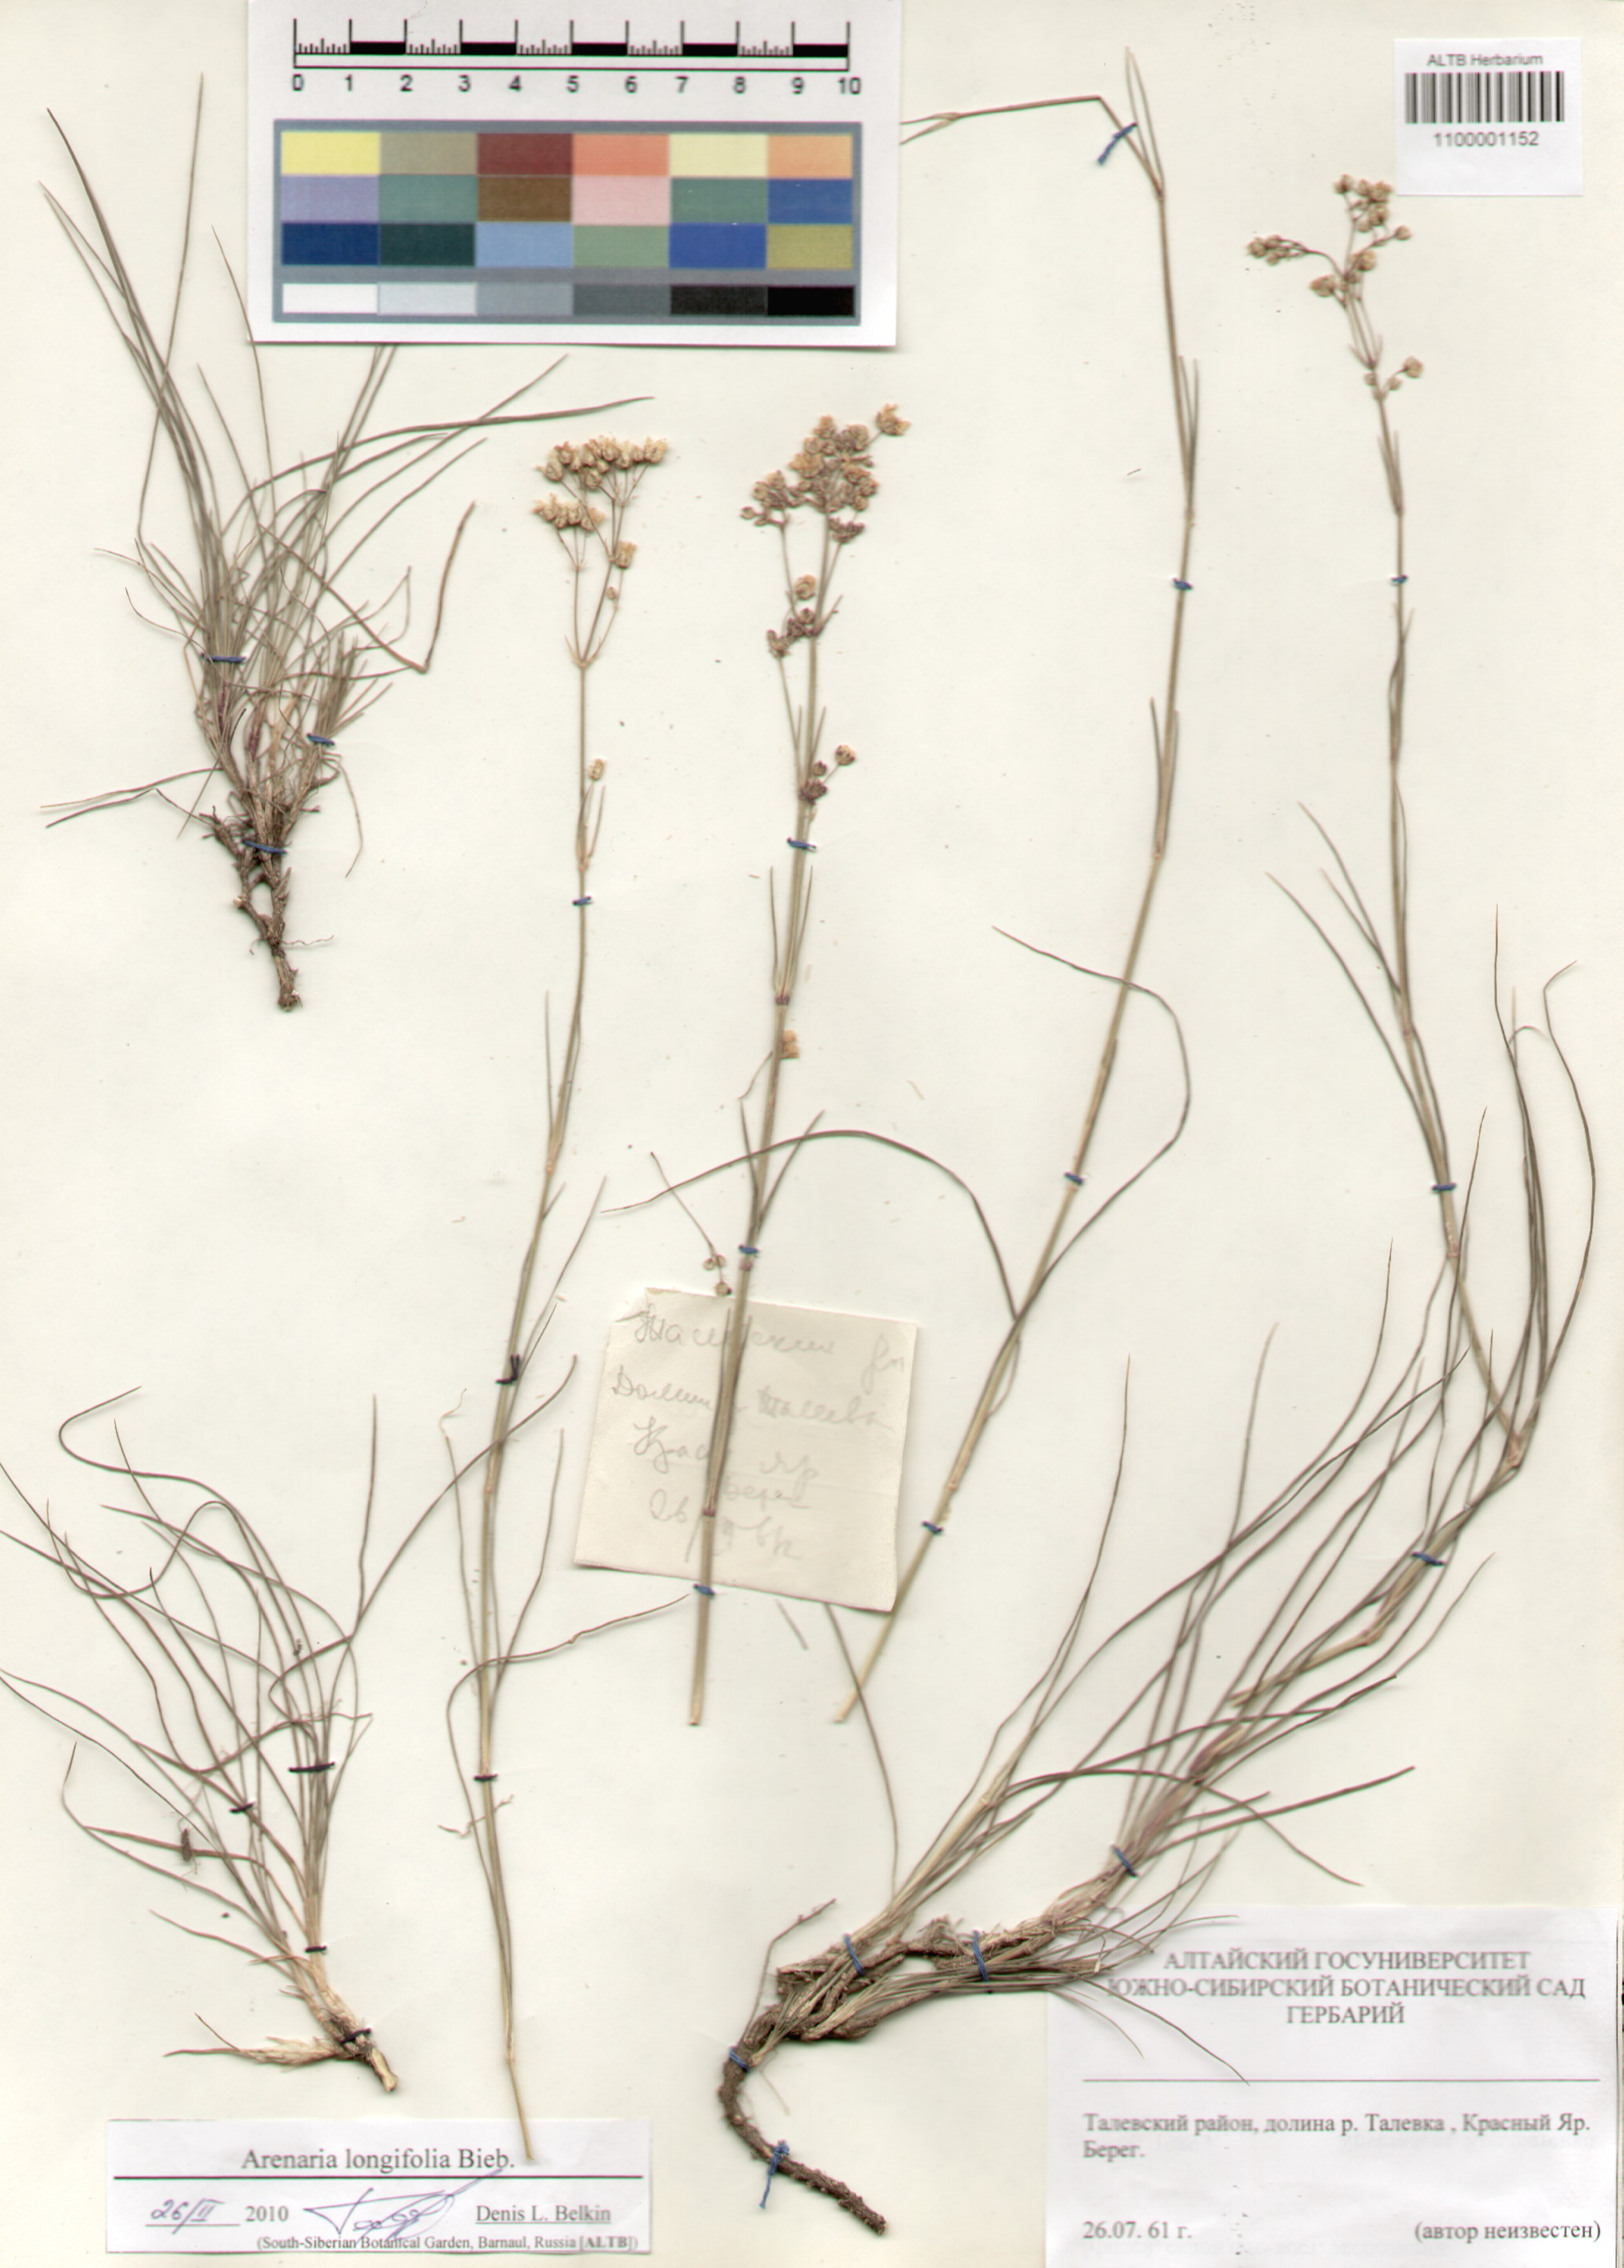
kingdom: Plantae
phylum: Tracheophyta
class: Magnoliopsida
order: Caryophyllales
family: Caryophyllaceae
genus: Eremogone
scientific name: Eremogone longifolia
